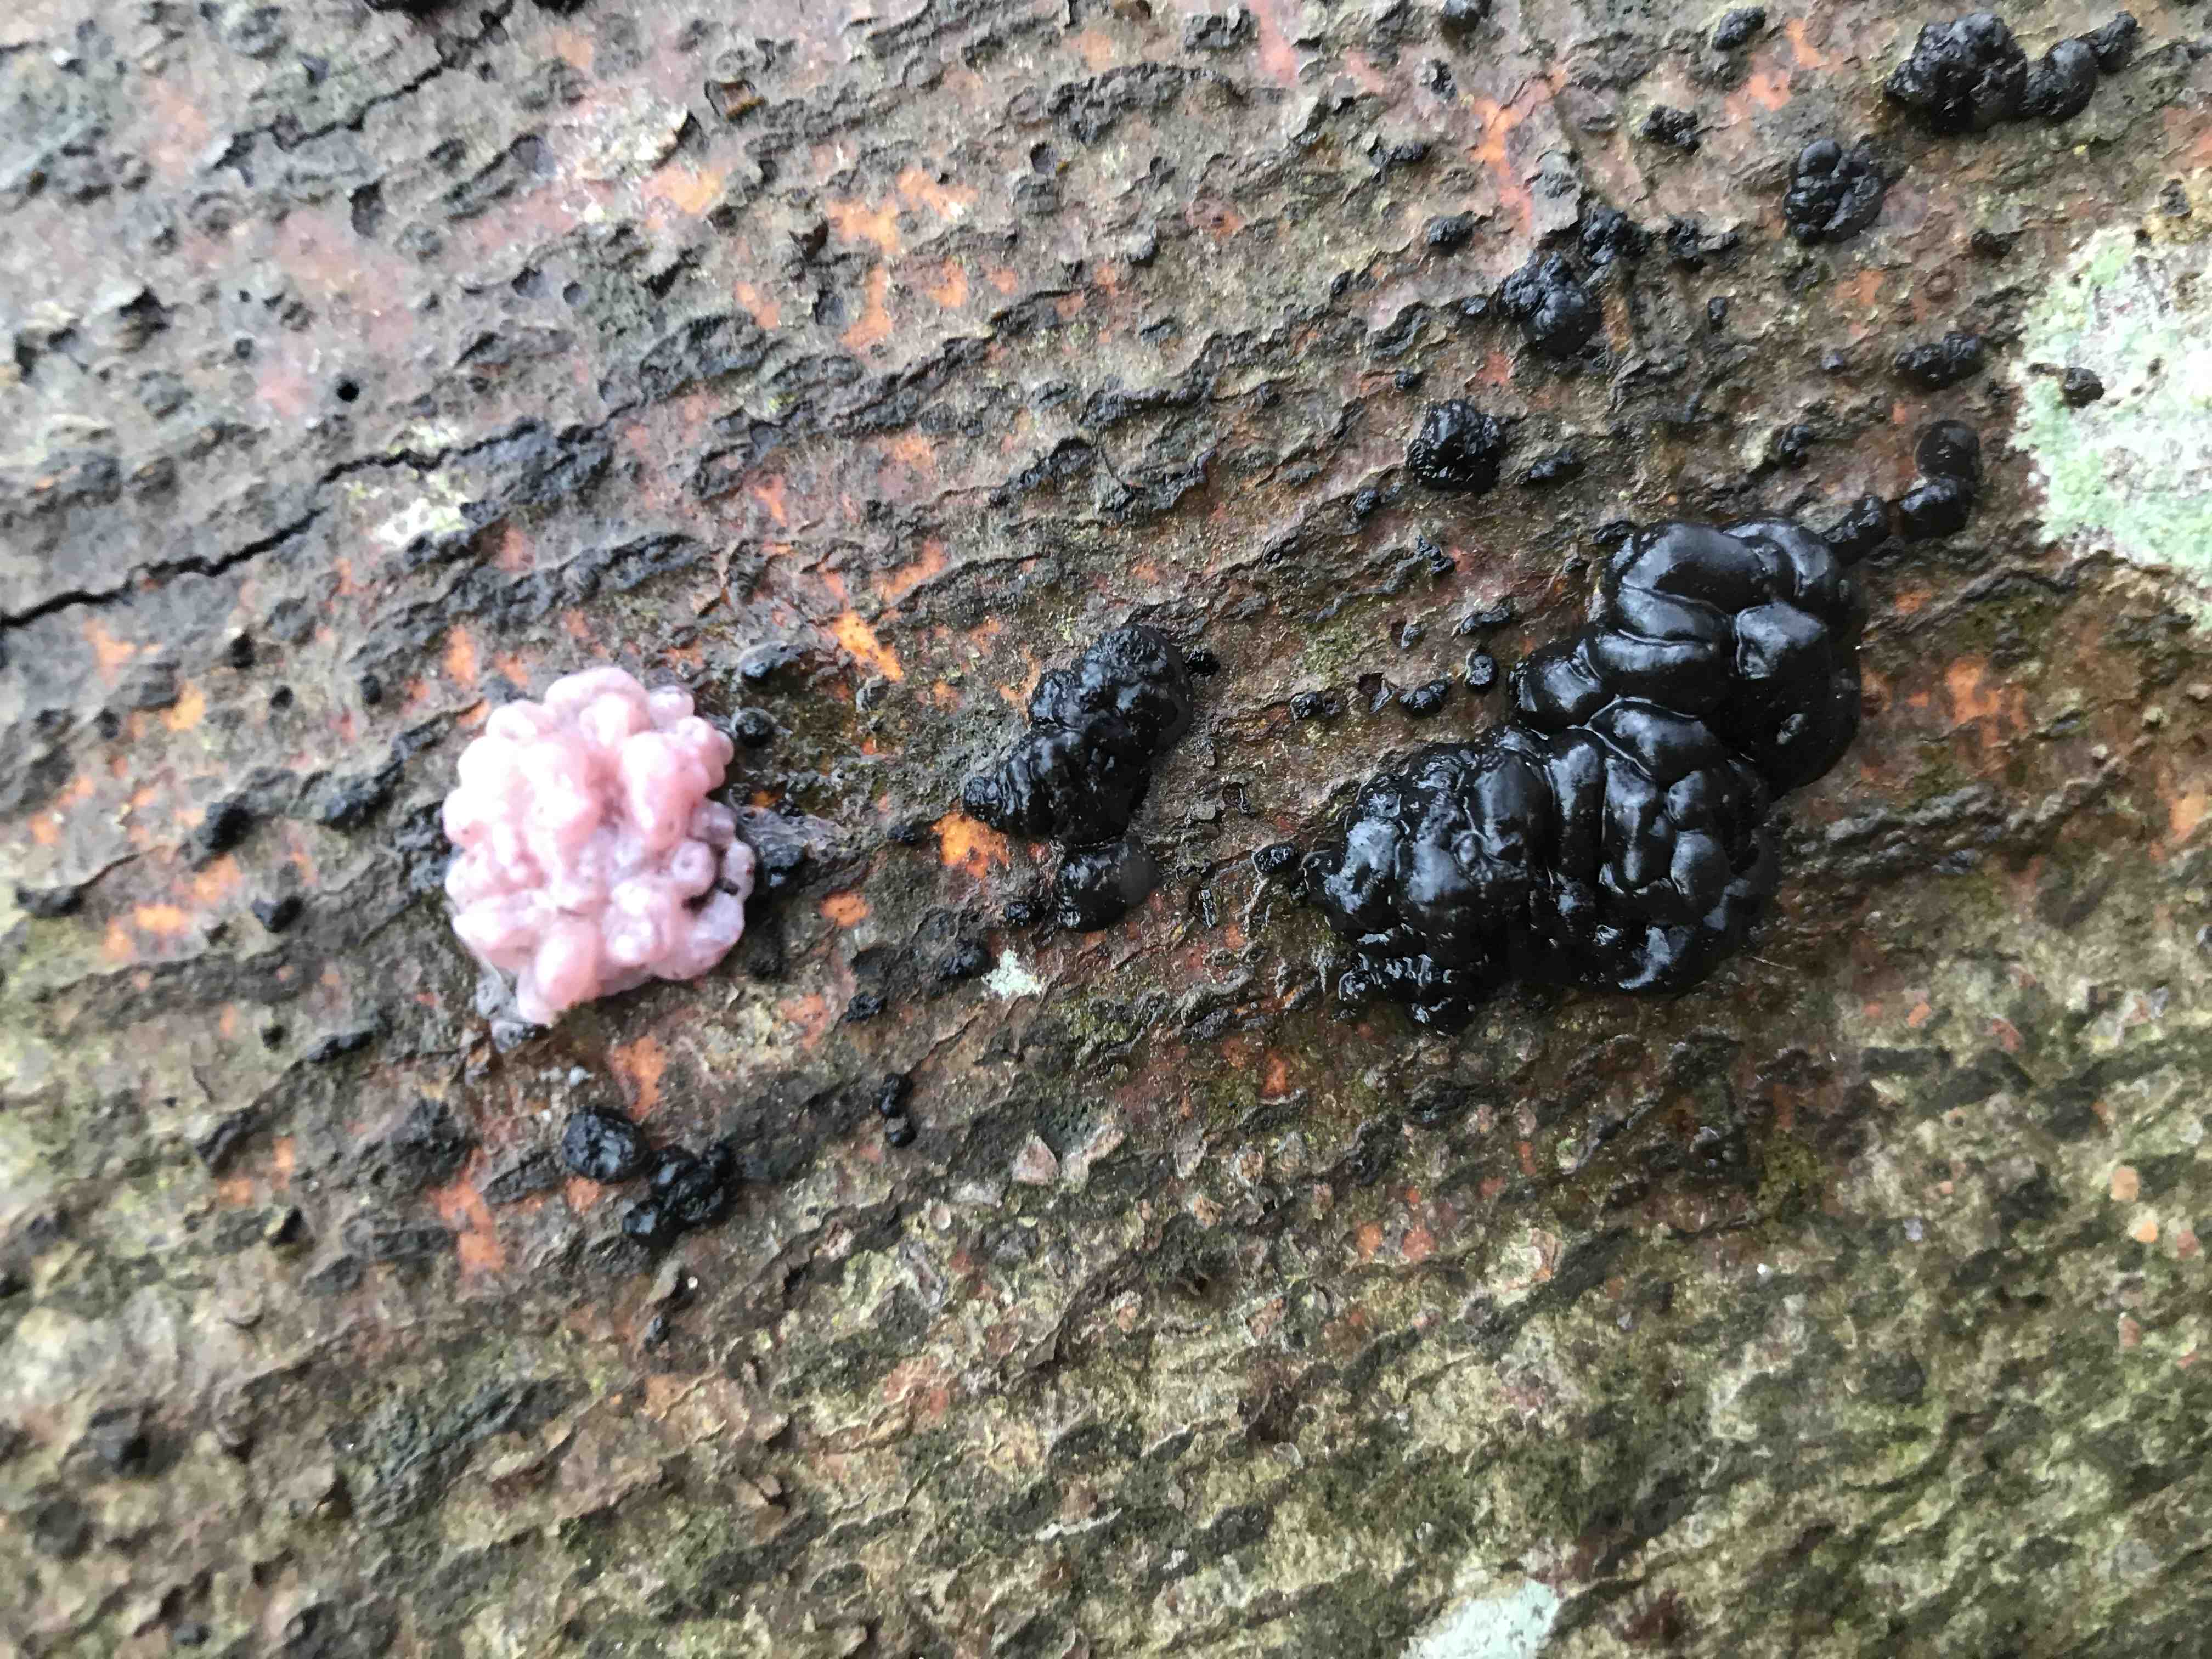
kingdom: Fungi
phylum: Basidiomycota
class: Agaricomycetes
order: Auriculariales
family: Auriculariaceae
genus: Exidia
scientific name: Exidia nigricans
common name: almindelig bævretop
